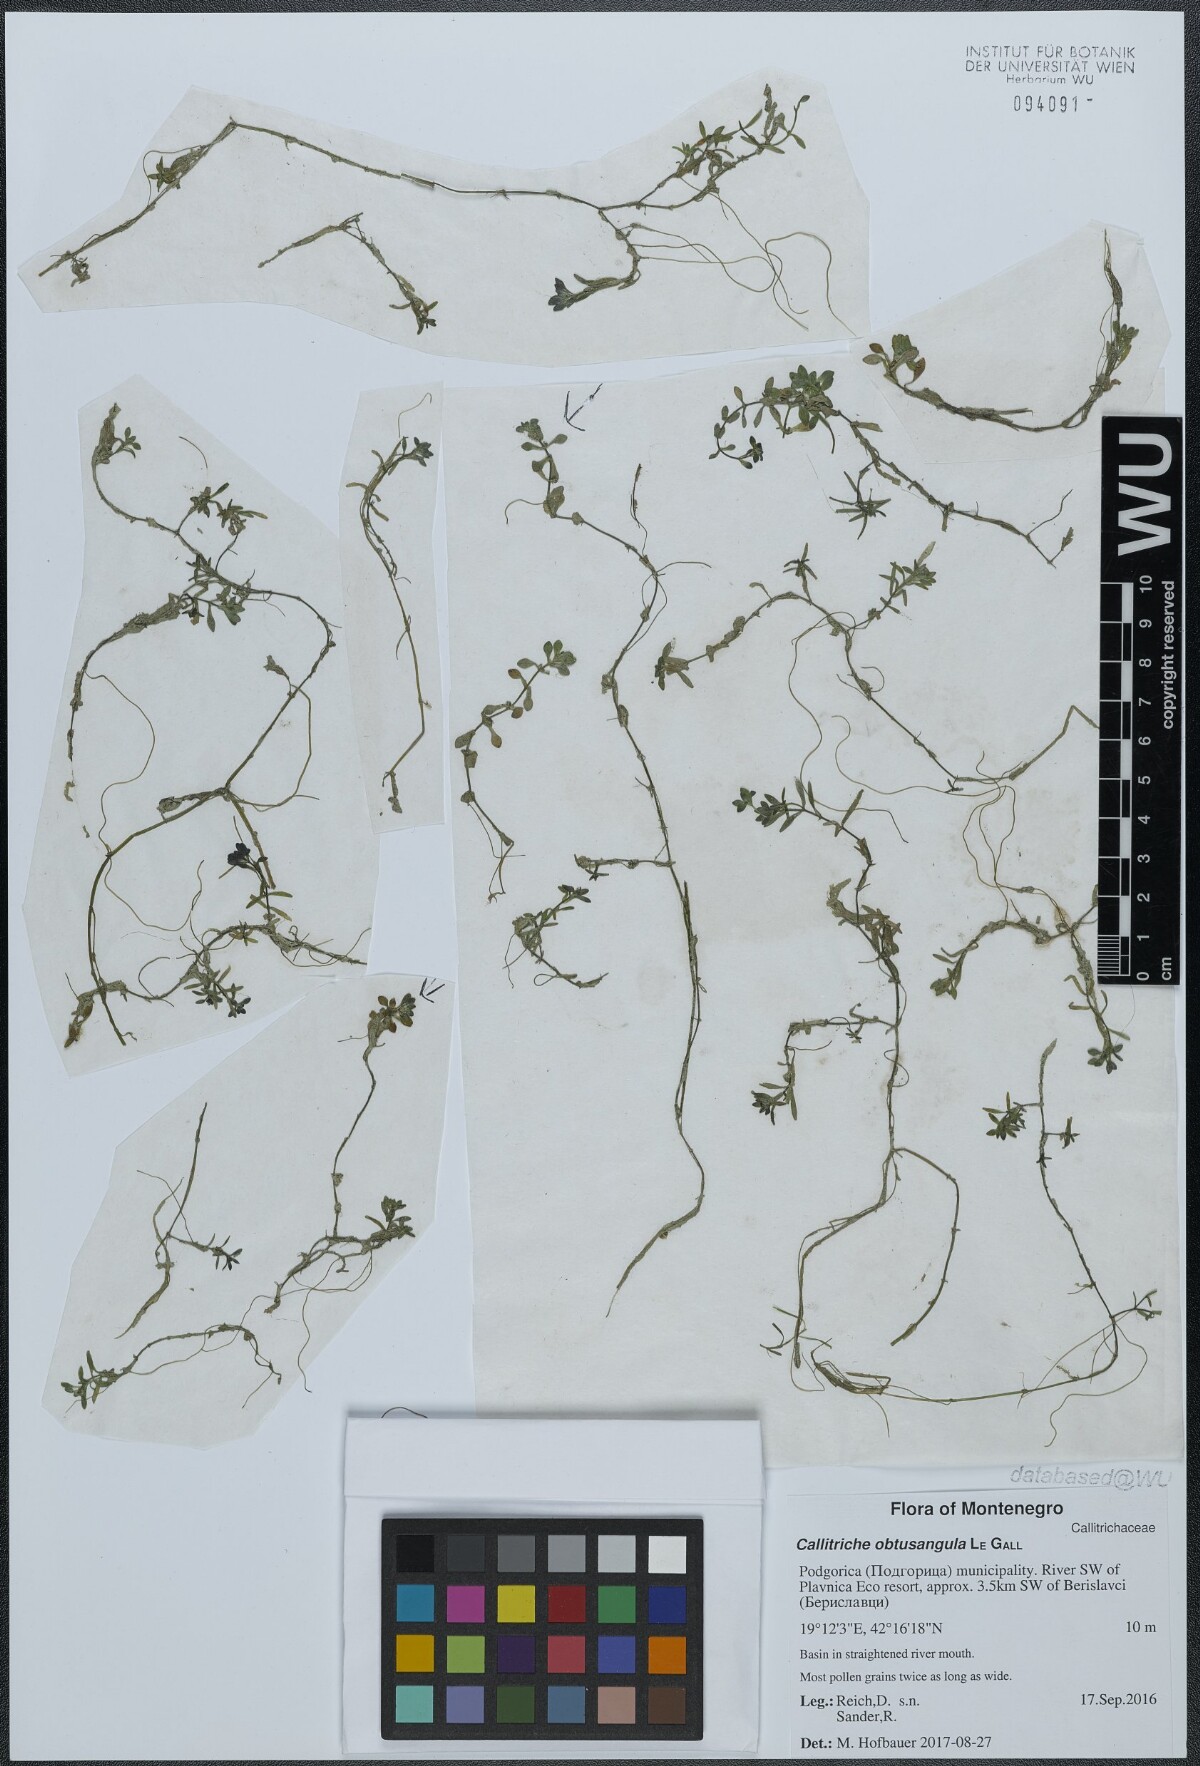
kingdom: Plantae
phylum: Tracheophyta
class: Magnoliopsida
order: Lamiales
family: Plantaginaceae
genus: Callitriche
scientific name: Callitriche obtusangula
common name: Blunt-fruited water-starwort
